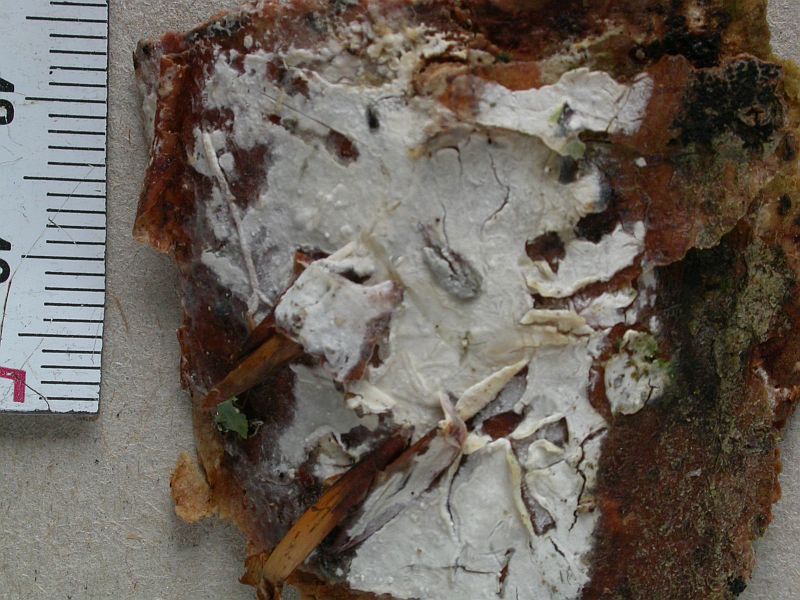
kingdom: Fungi
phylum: Basidiomycota
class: Agaricomycetes
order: Russulales
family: Stereaceae
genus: Gloeocystidiellum
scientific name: Gloeocystidiellum porosum
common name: mælkehvid olieskind
